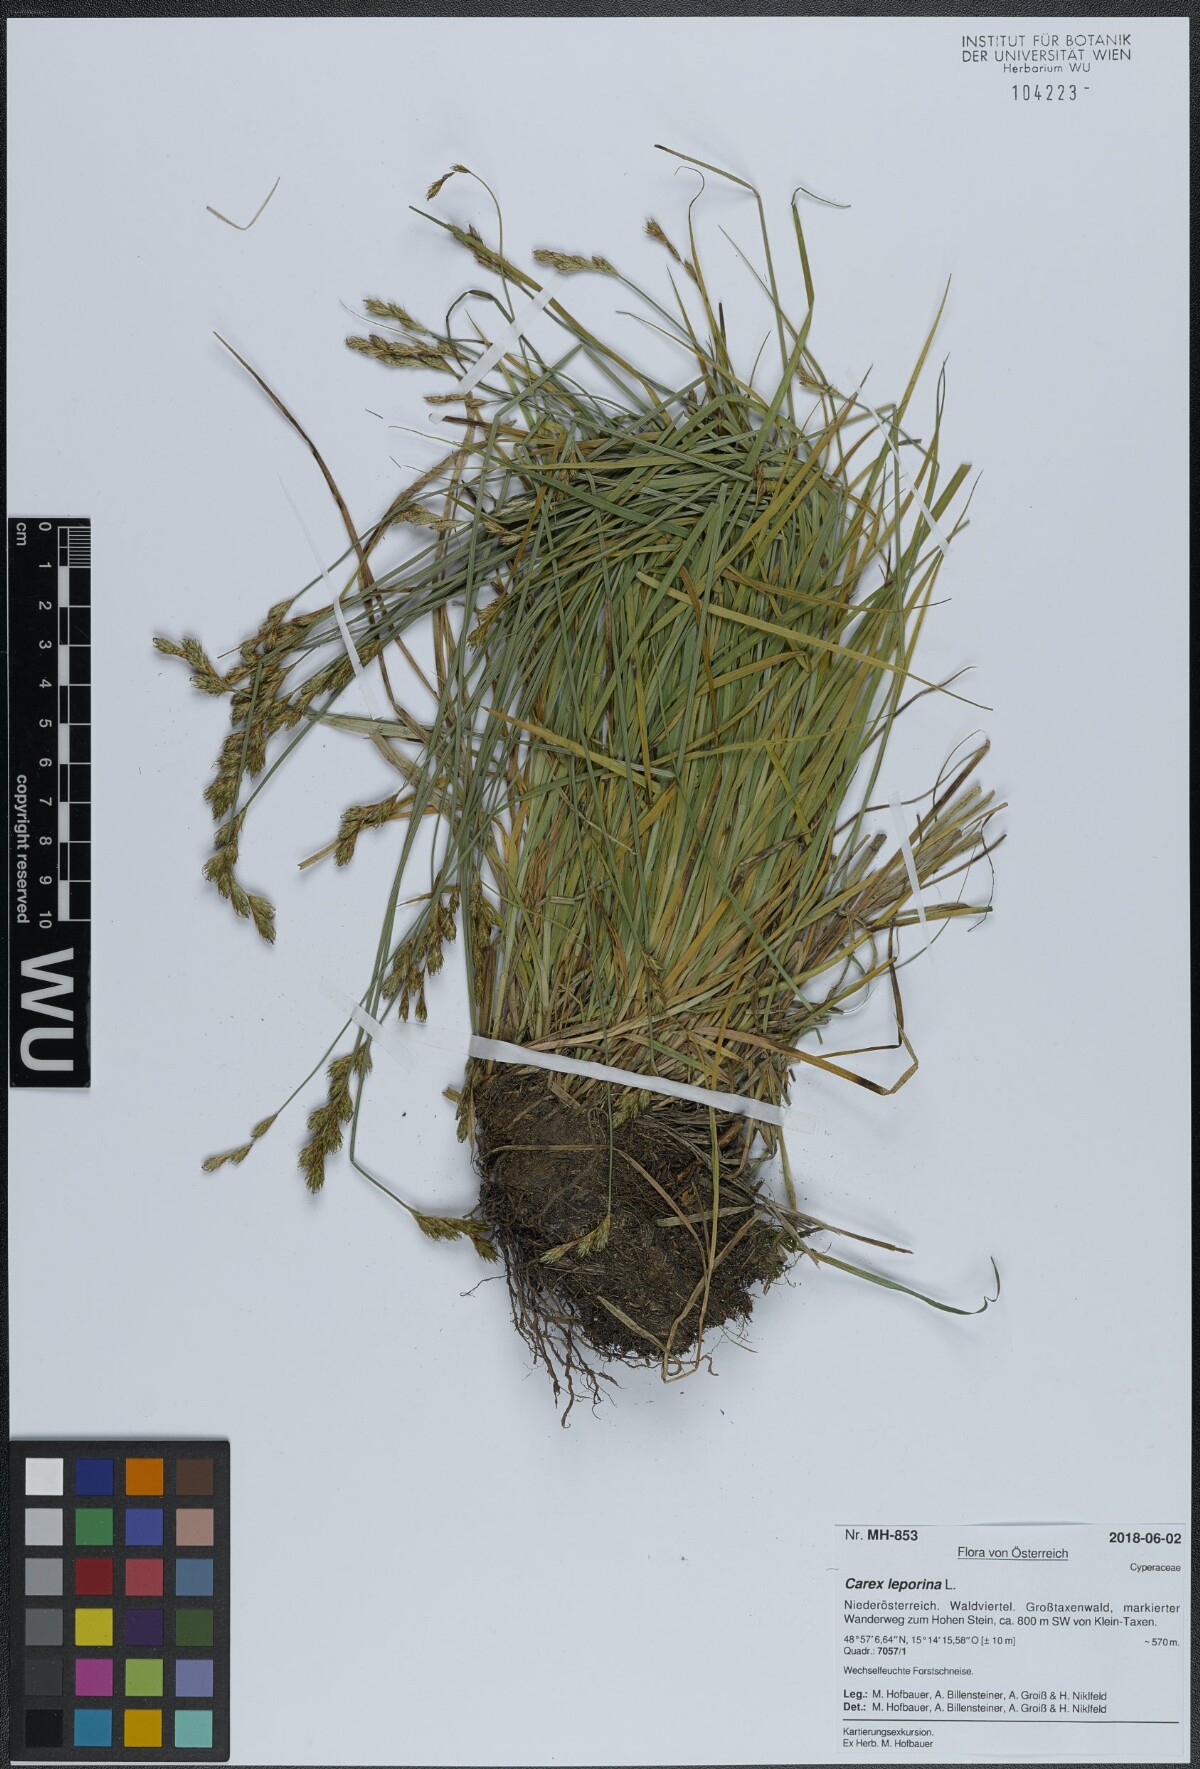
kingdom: Plantae
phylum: Tracheophyta
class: Liliopsida
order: Poales
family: Cyperaceae
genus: Carex
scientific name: Carex leporina
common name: Oval sedge
